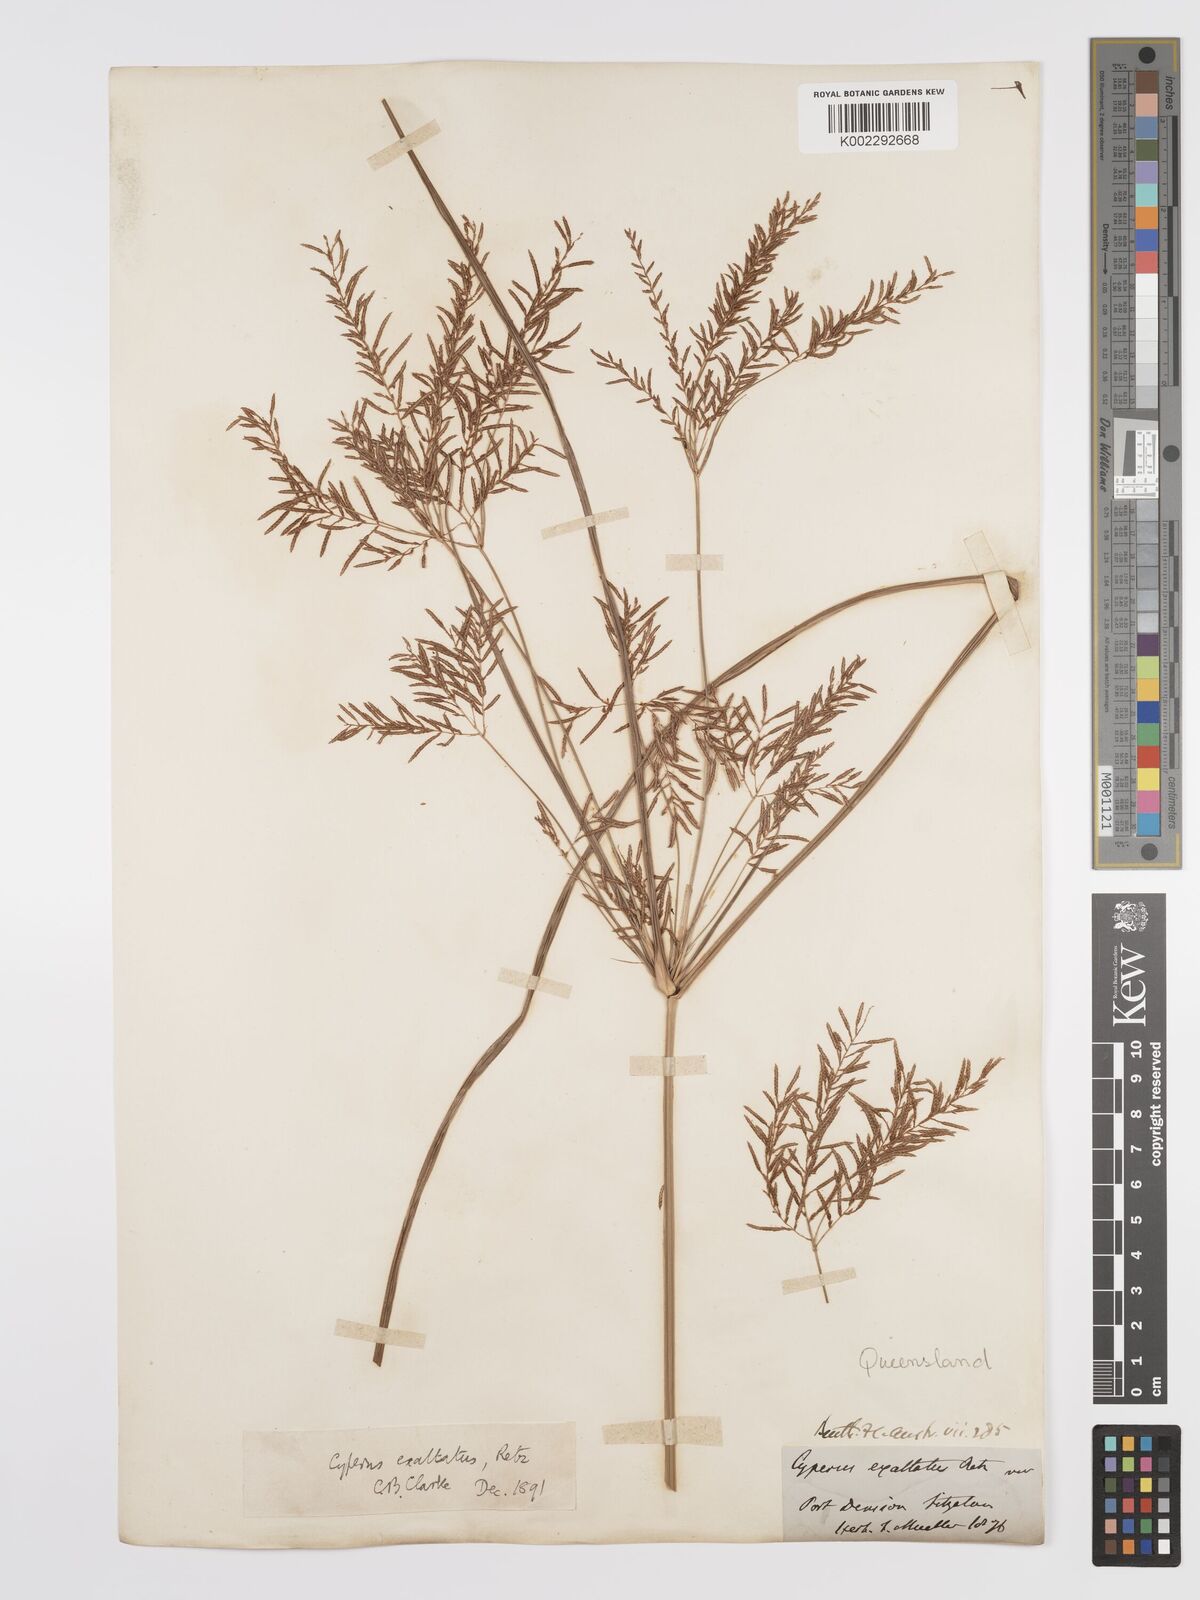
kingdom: Plantae
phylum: Tracheophyta
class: Liliopsida
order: Poales
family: Cyperaceae
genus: Cyperus
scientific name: Cyperus exaltatus
